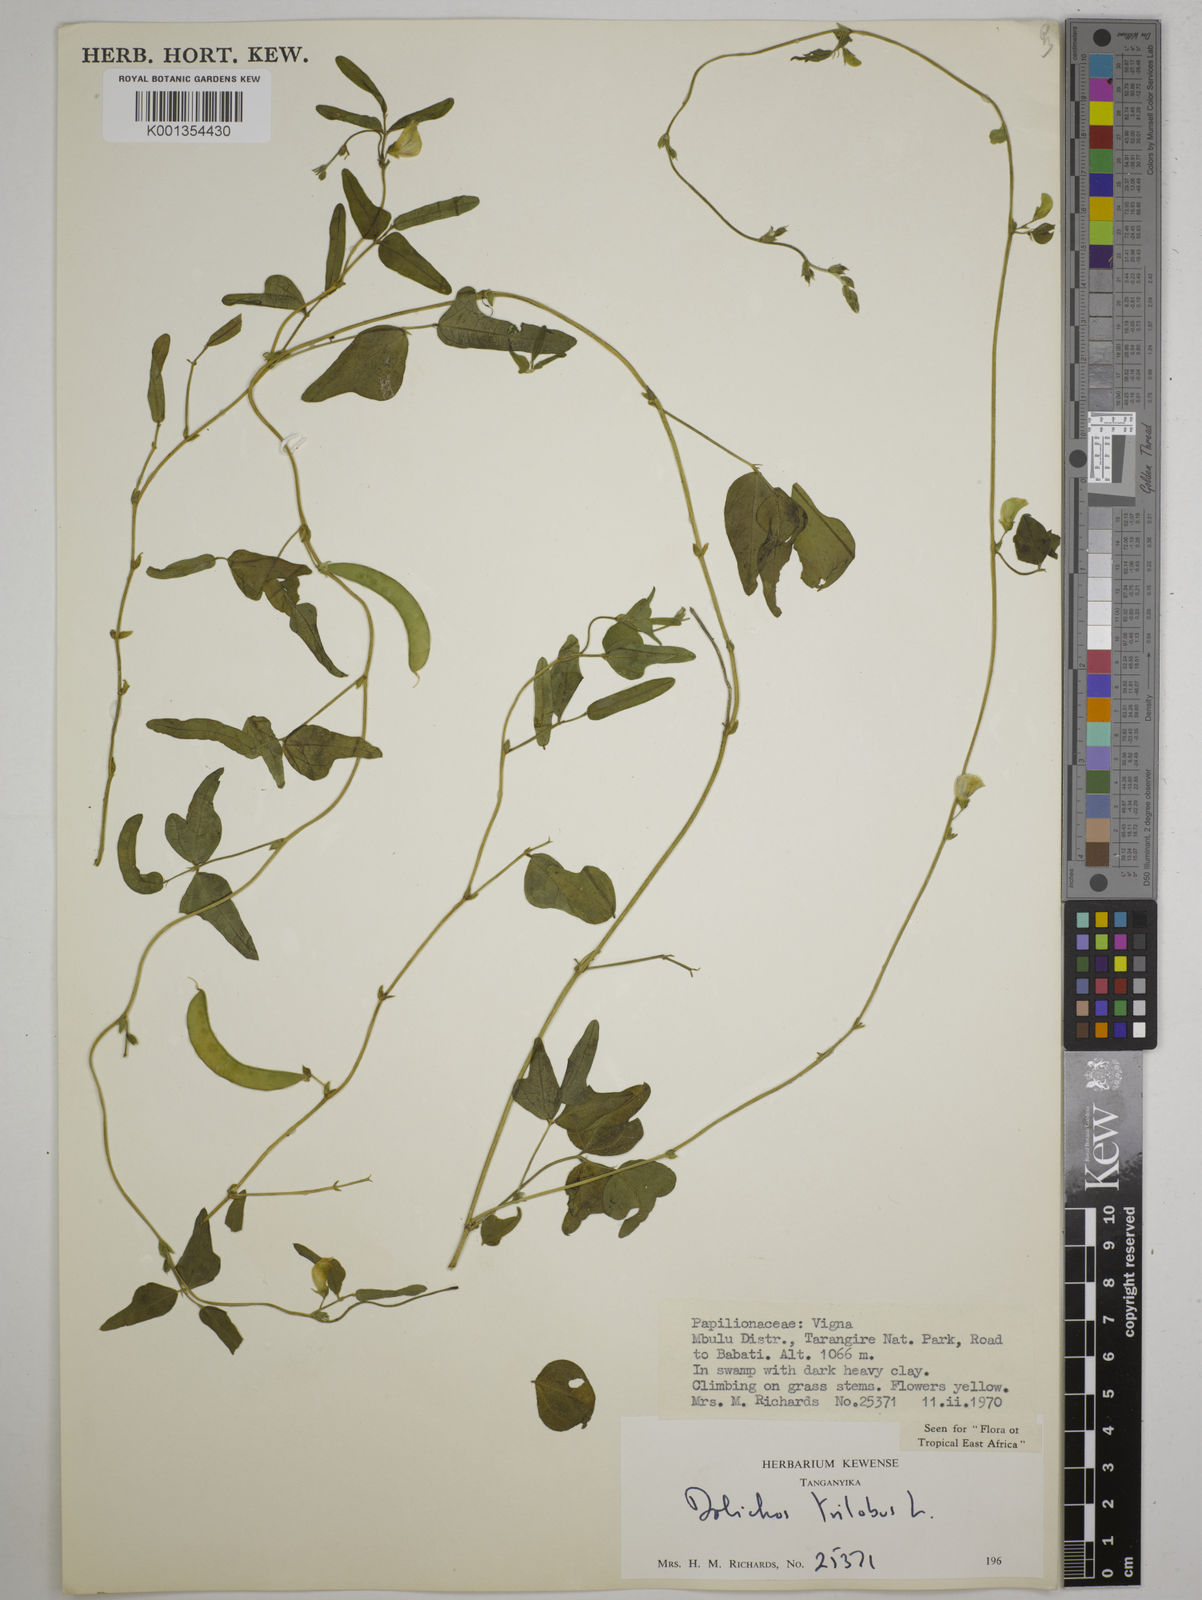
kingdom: Plantae
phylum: Tracheophyta
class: Magnoliopsida
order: Fabales
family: Fabaceae
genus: Dolichos
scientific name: Dolichos
